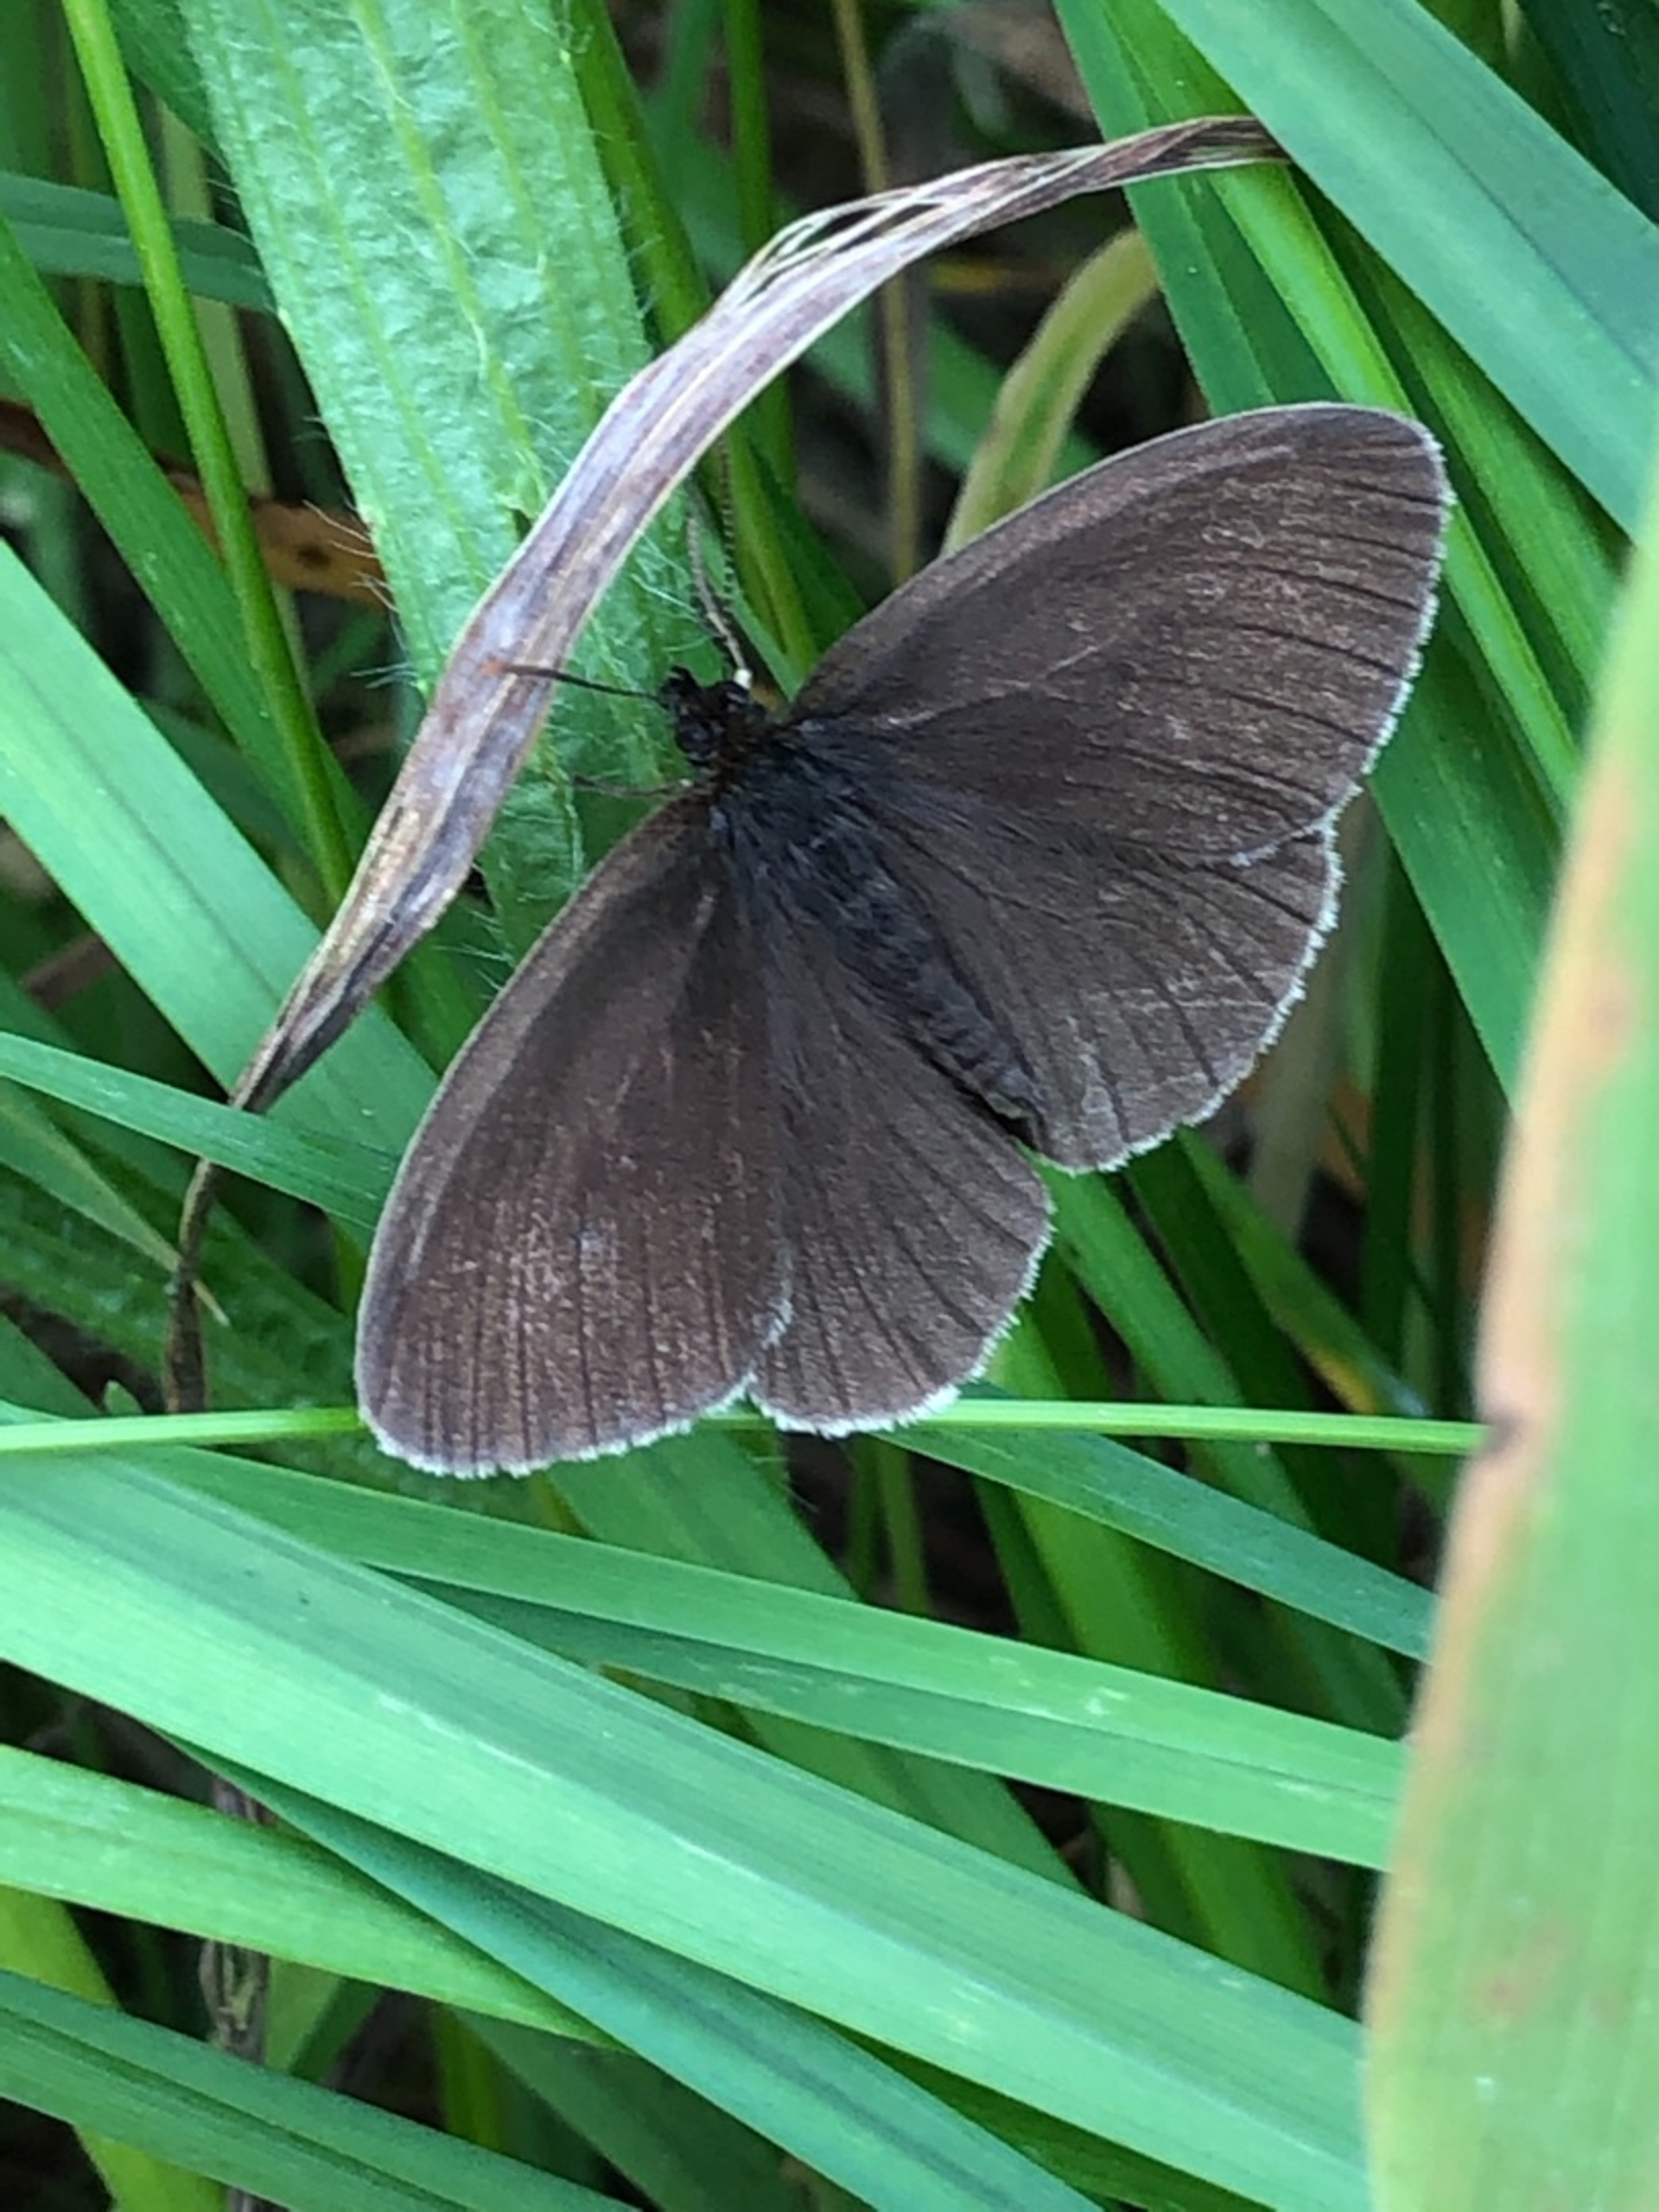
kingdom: Animalia
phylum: Arthropoda
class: Insecta
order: Lepidoptera
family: Nymphalidae
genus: Aphantopus
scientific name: Aphantopus hyperantus
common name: Engrandøje
